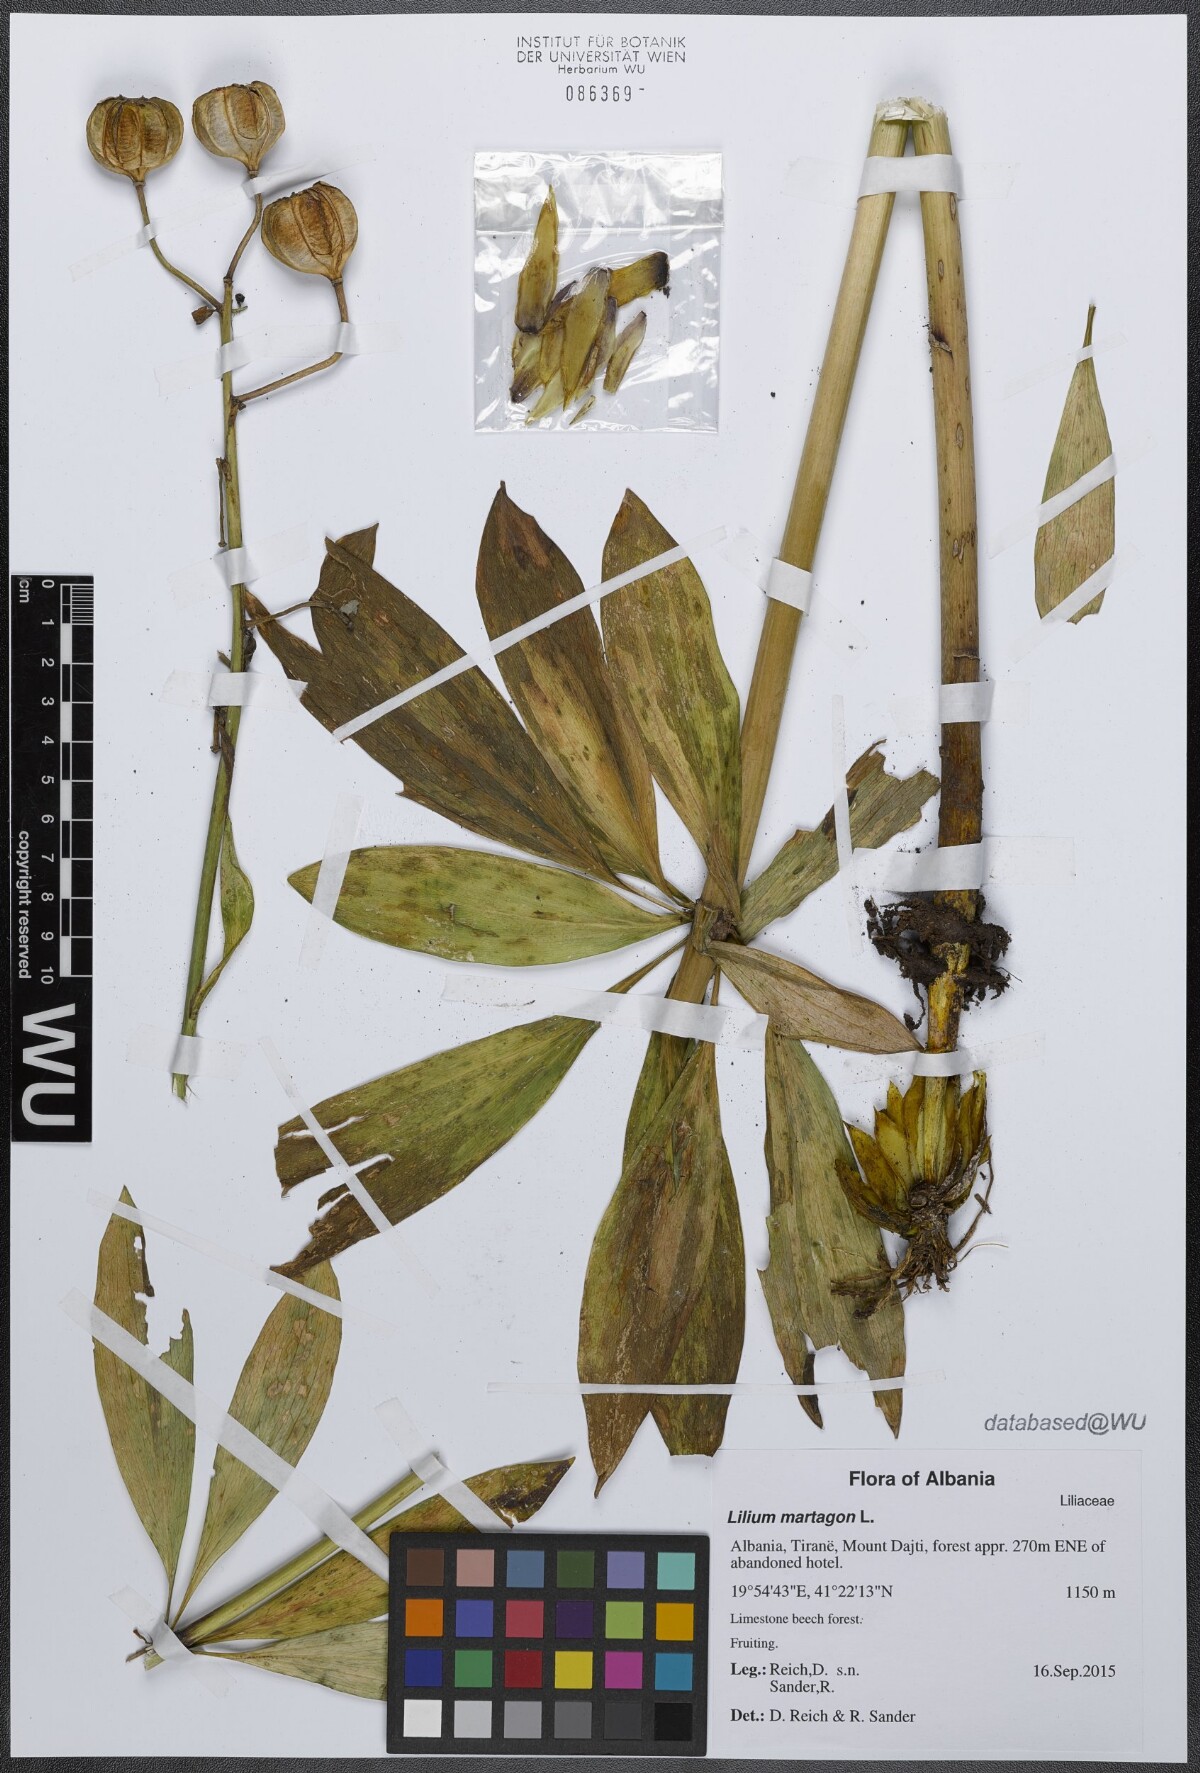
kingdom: Plantae
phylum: Tracheophyta
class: Liliopsida
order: Liliales
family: Liliaceae
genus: Lilium
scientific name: Lilium martagon
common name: Martagon lily
